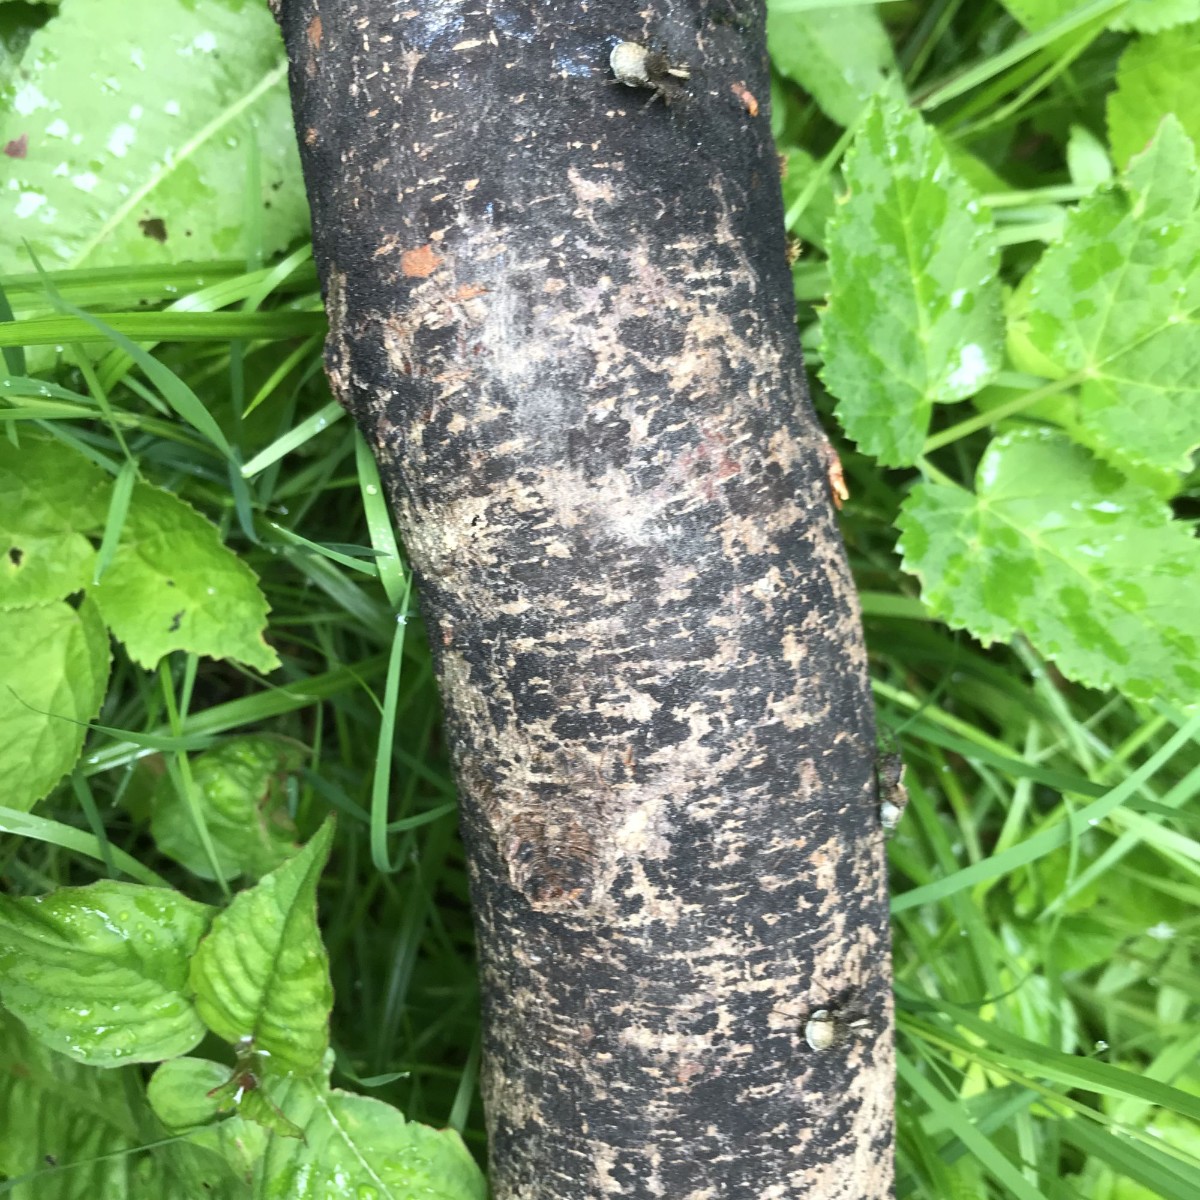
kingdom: Fungi
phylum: Ascomycota
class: Sordariomycetes
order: Xylariales
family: Melogrammataceae
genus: Melogramma
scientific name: Melogramma spiniferum
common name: bøgefod-kulhals
